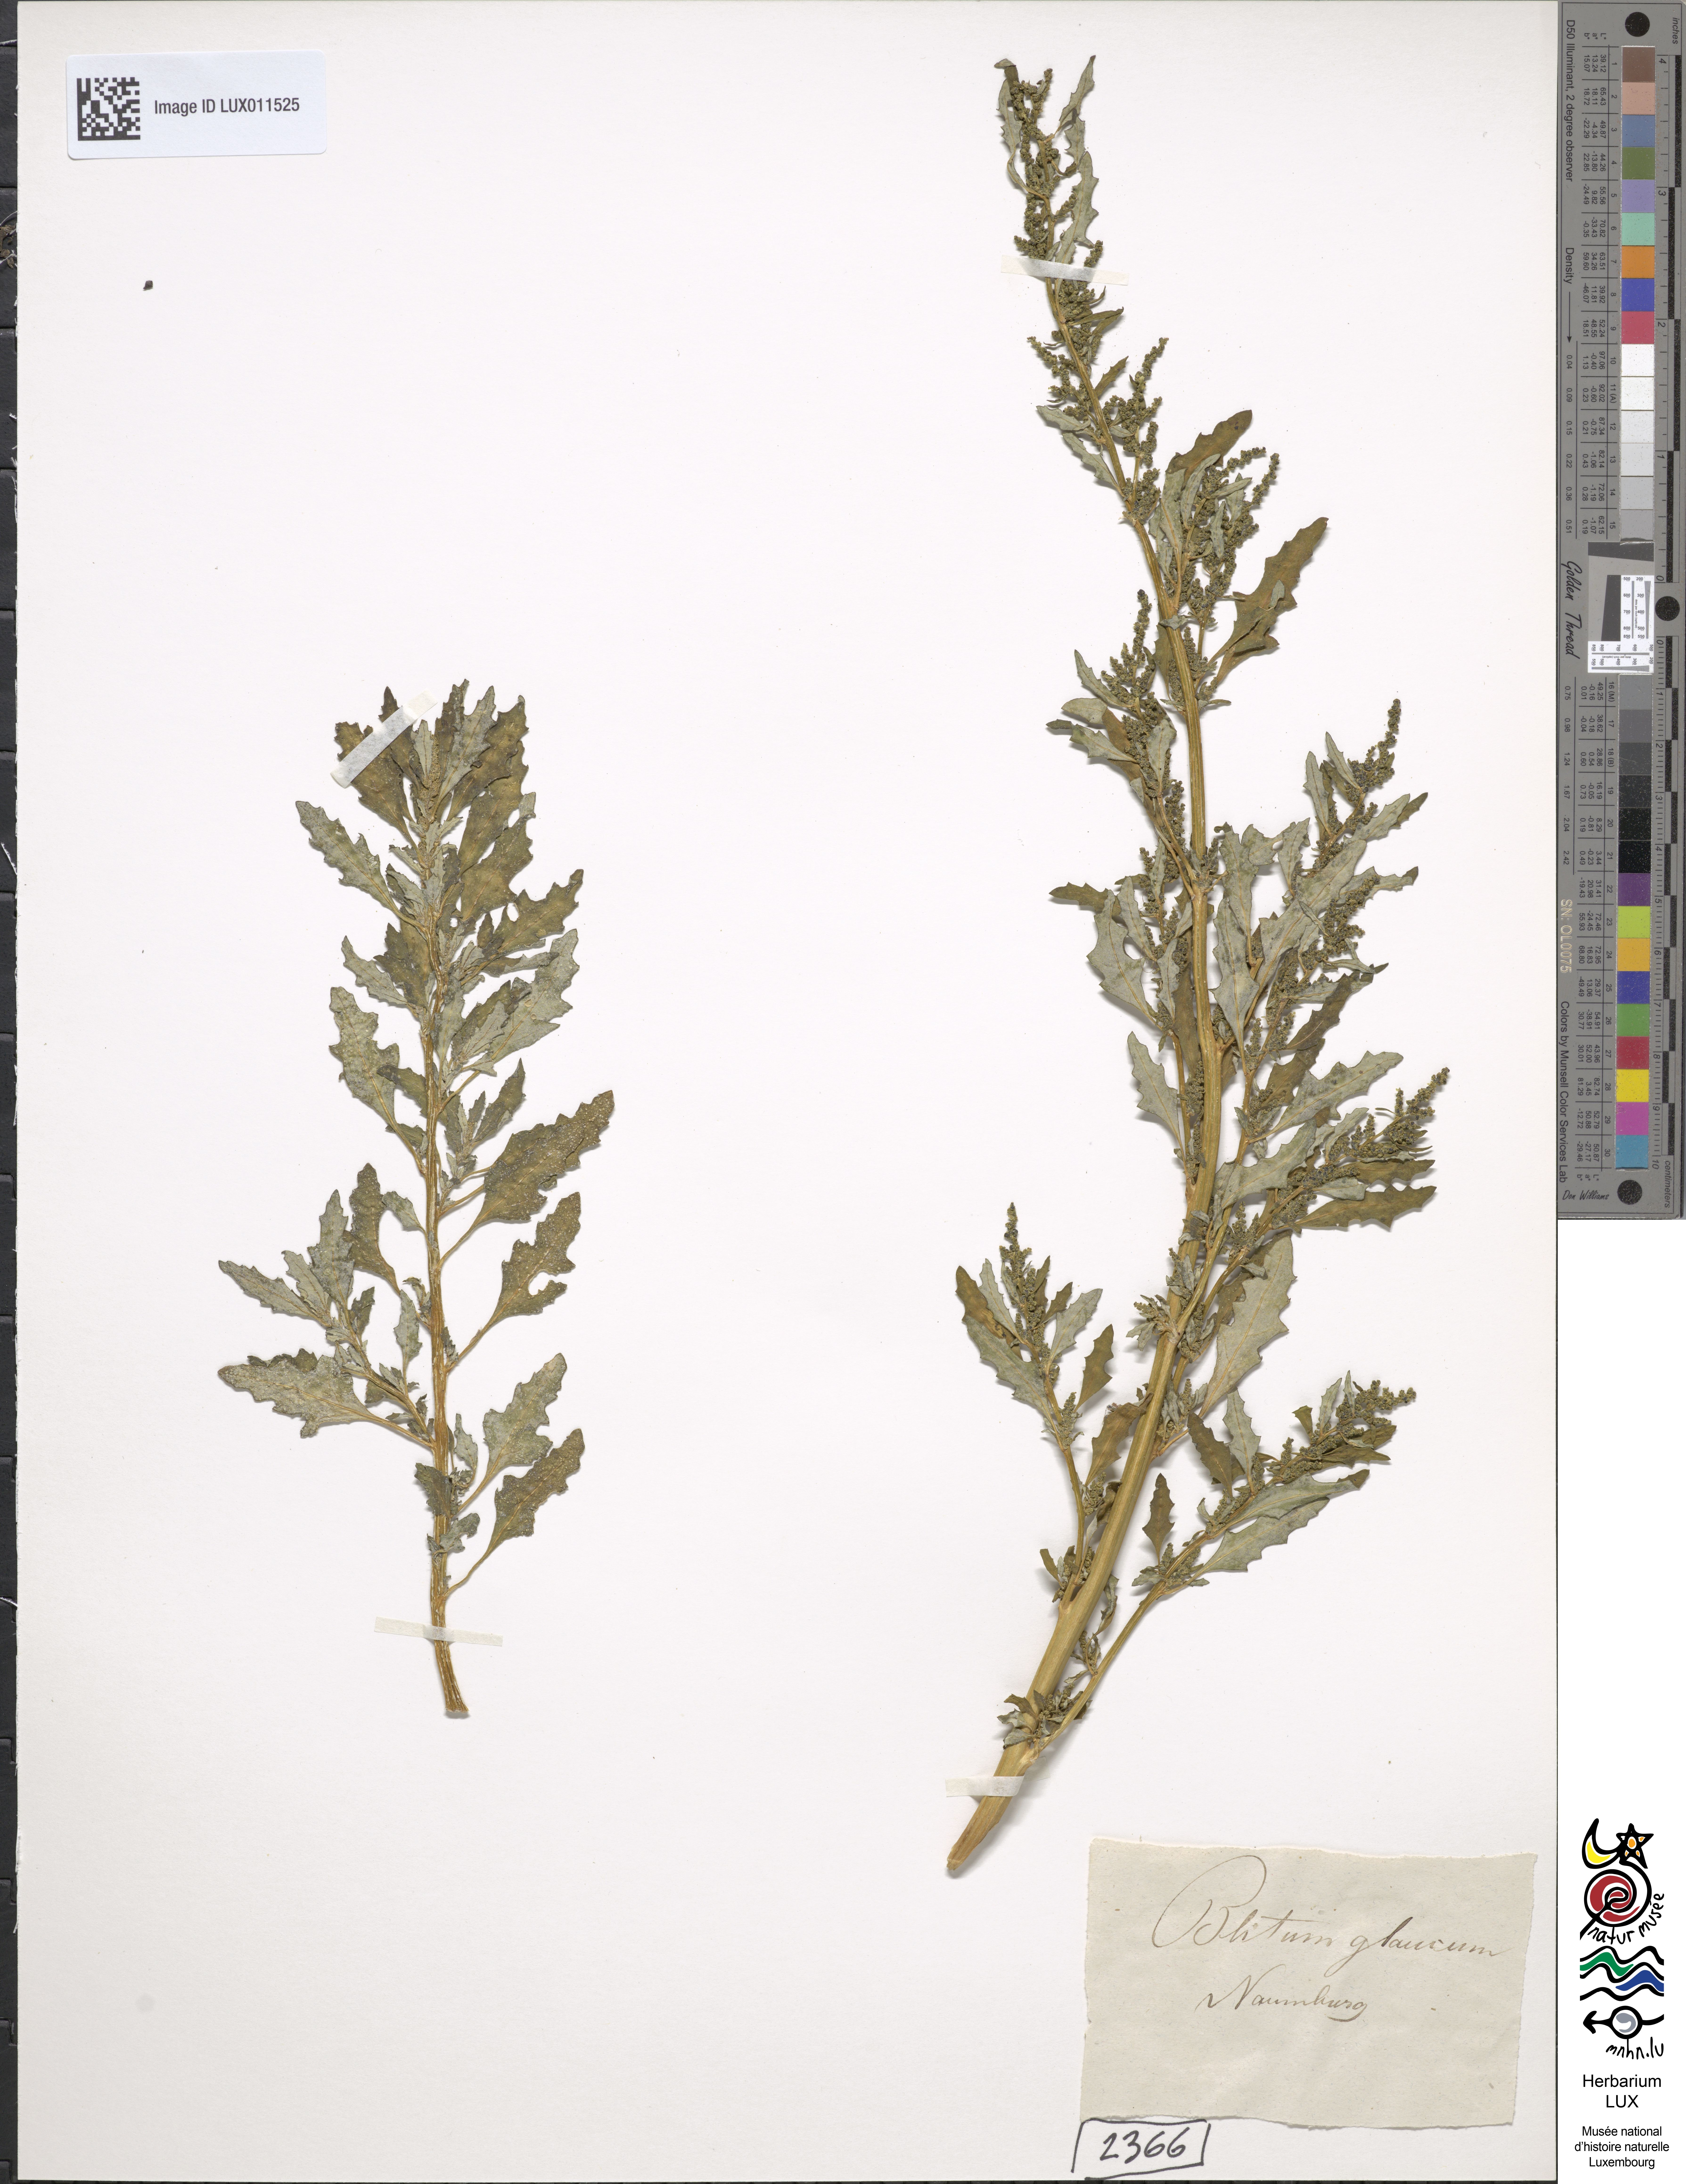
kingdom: Plantae
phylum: Tracheophyta
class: Magnoliopsida
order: Caryophyllales
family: Amaranthaceae
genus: Oxybasis
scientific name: Oxybasis glauca
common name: Glaucous goosefoot
